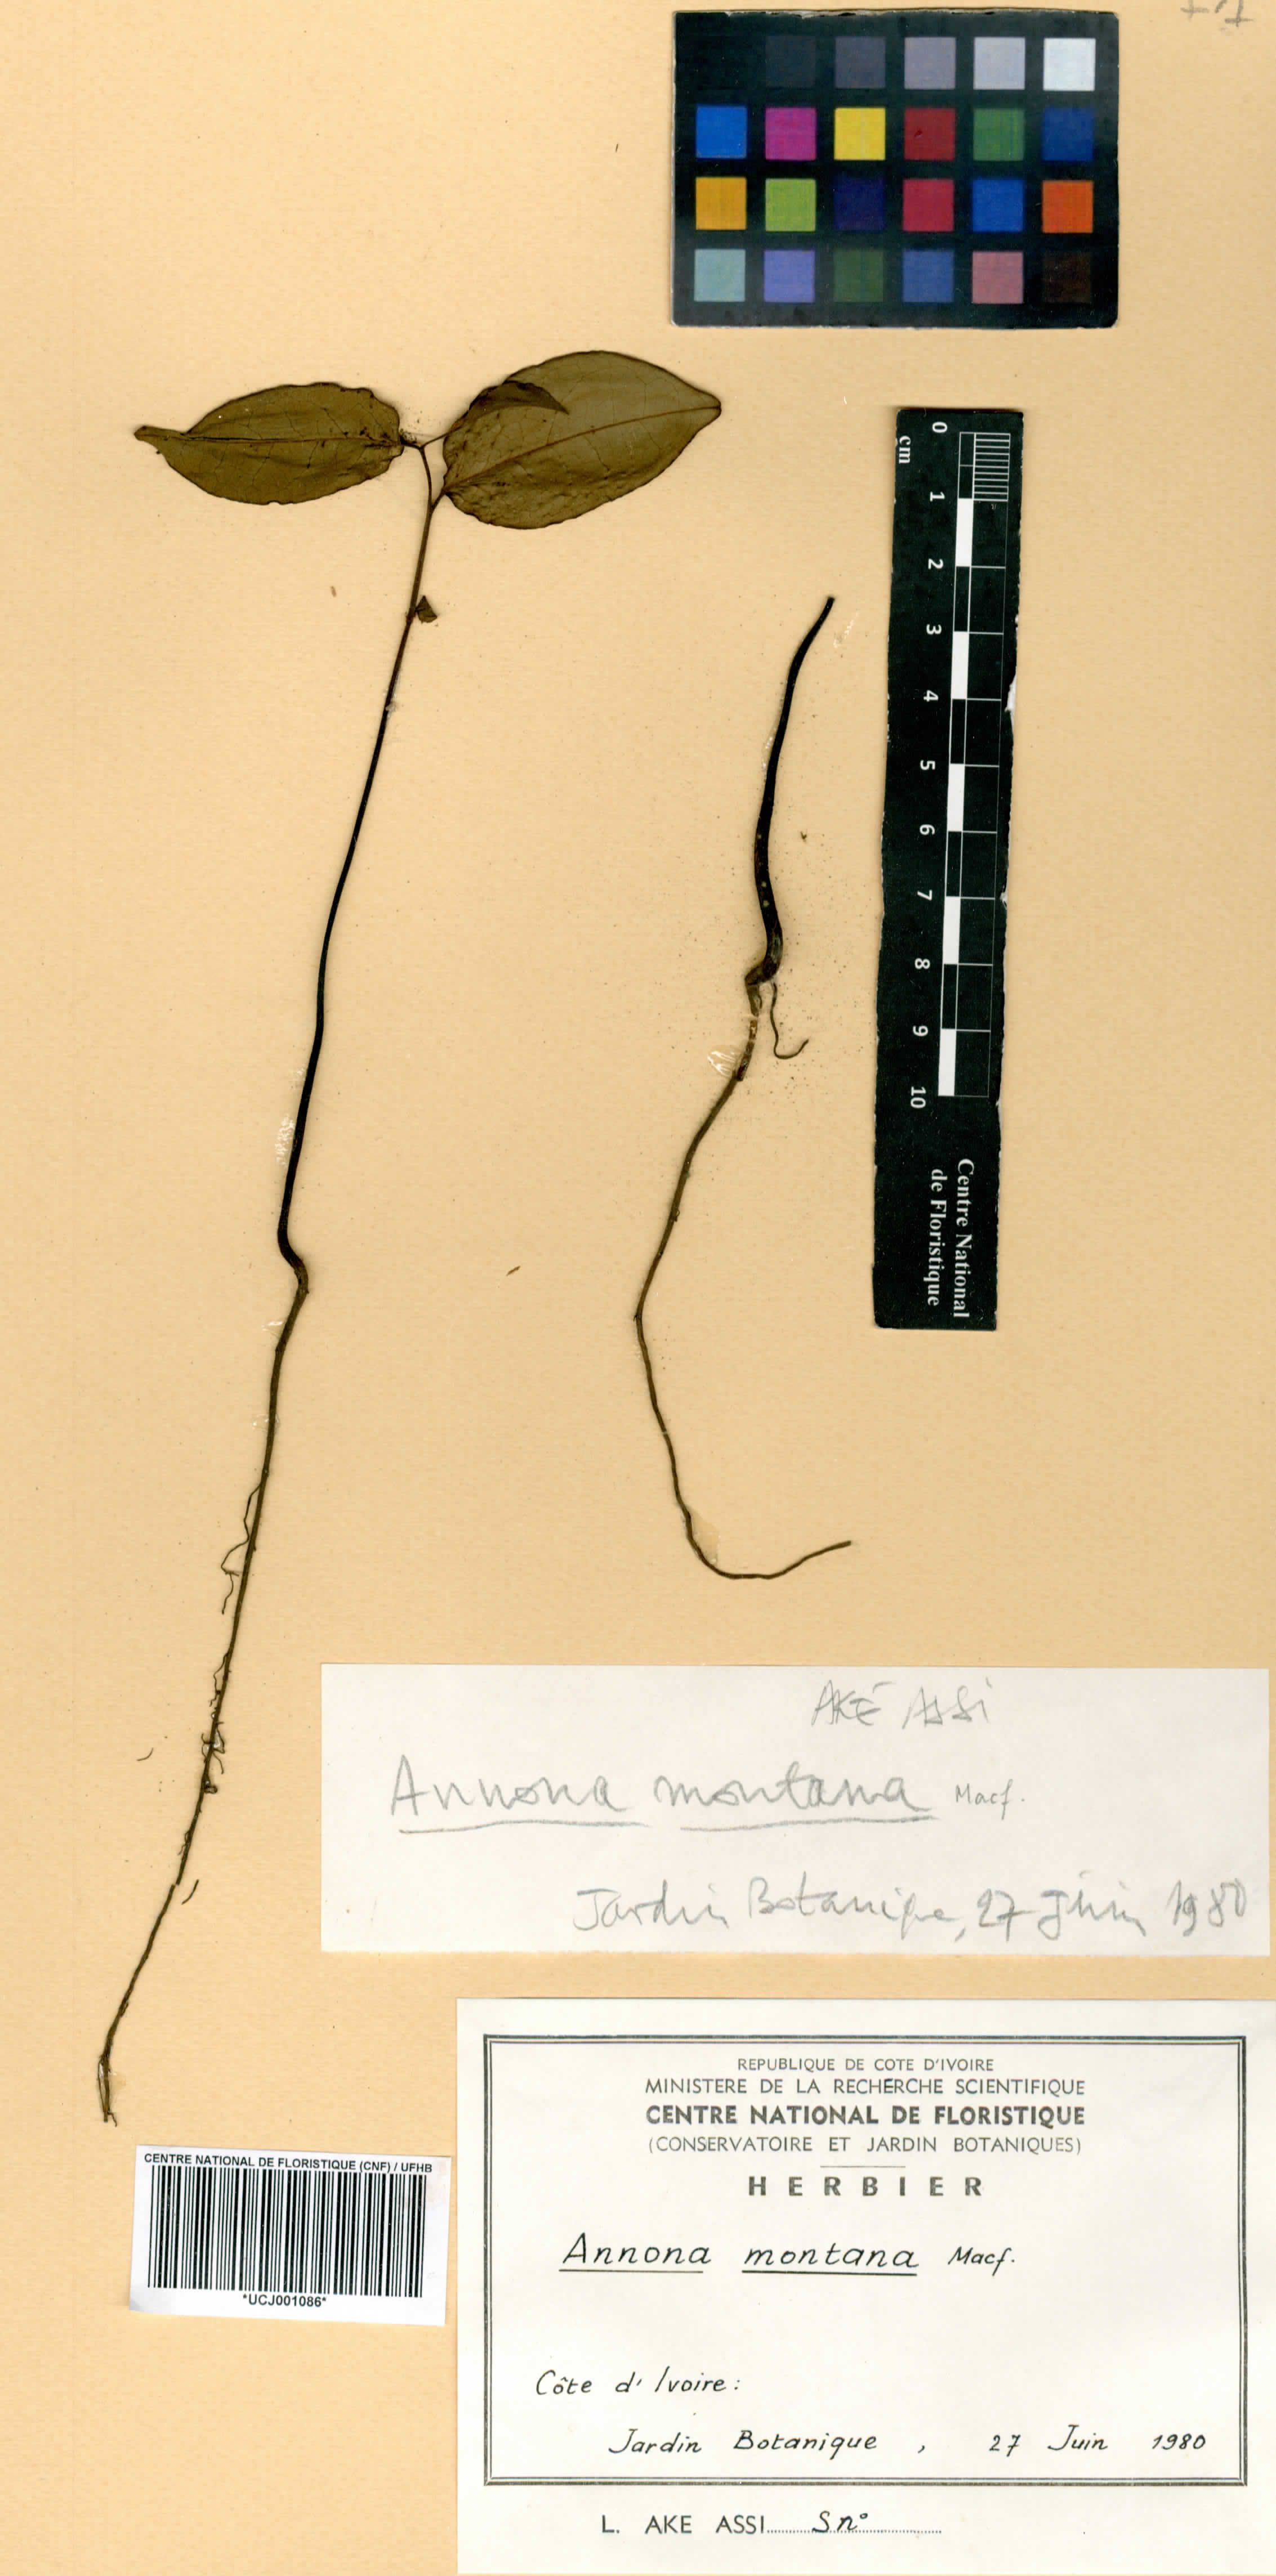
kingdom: Plantae
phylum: Tracheophyta
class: Magnoliopsida
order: Magnoliales
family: Annonaceae
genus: Annona
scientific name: Annona montana
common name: Mountain soursop
